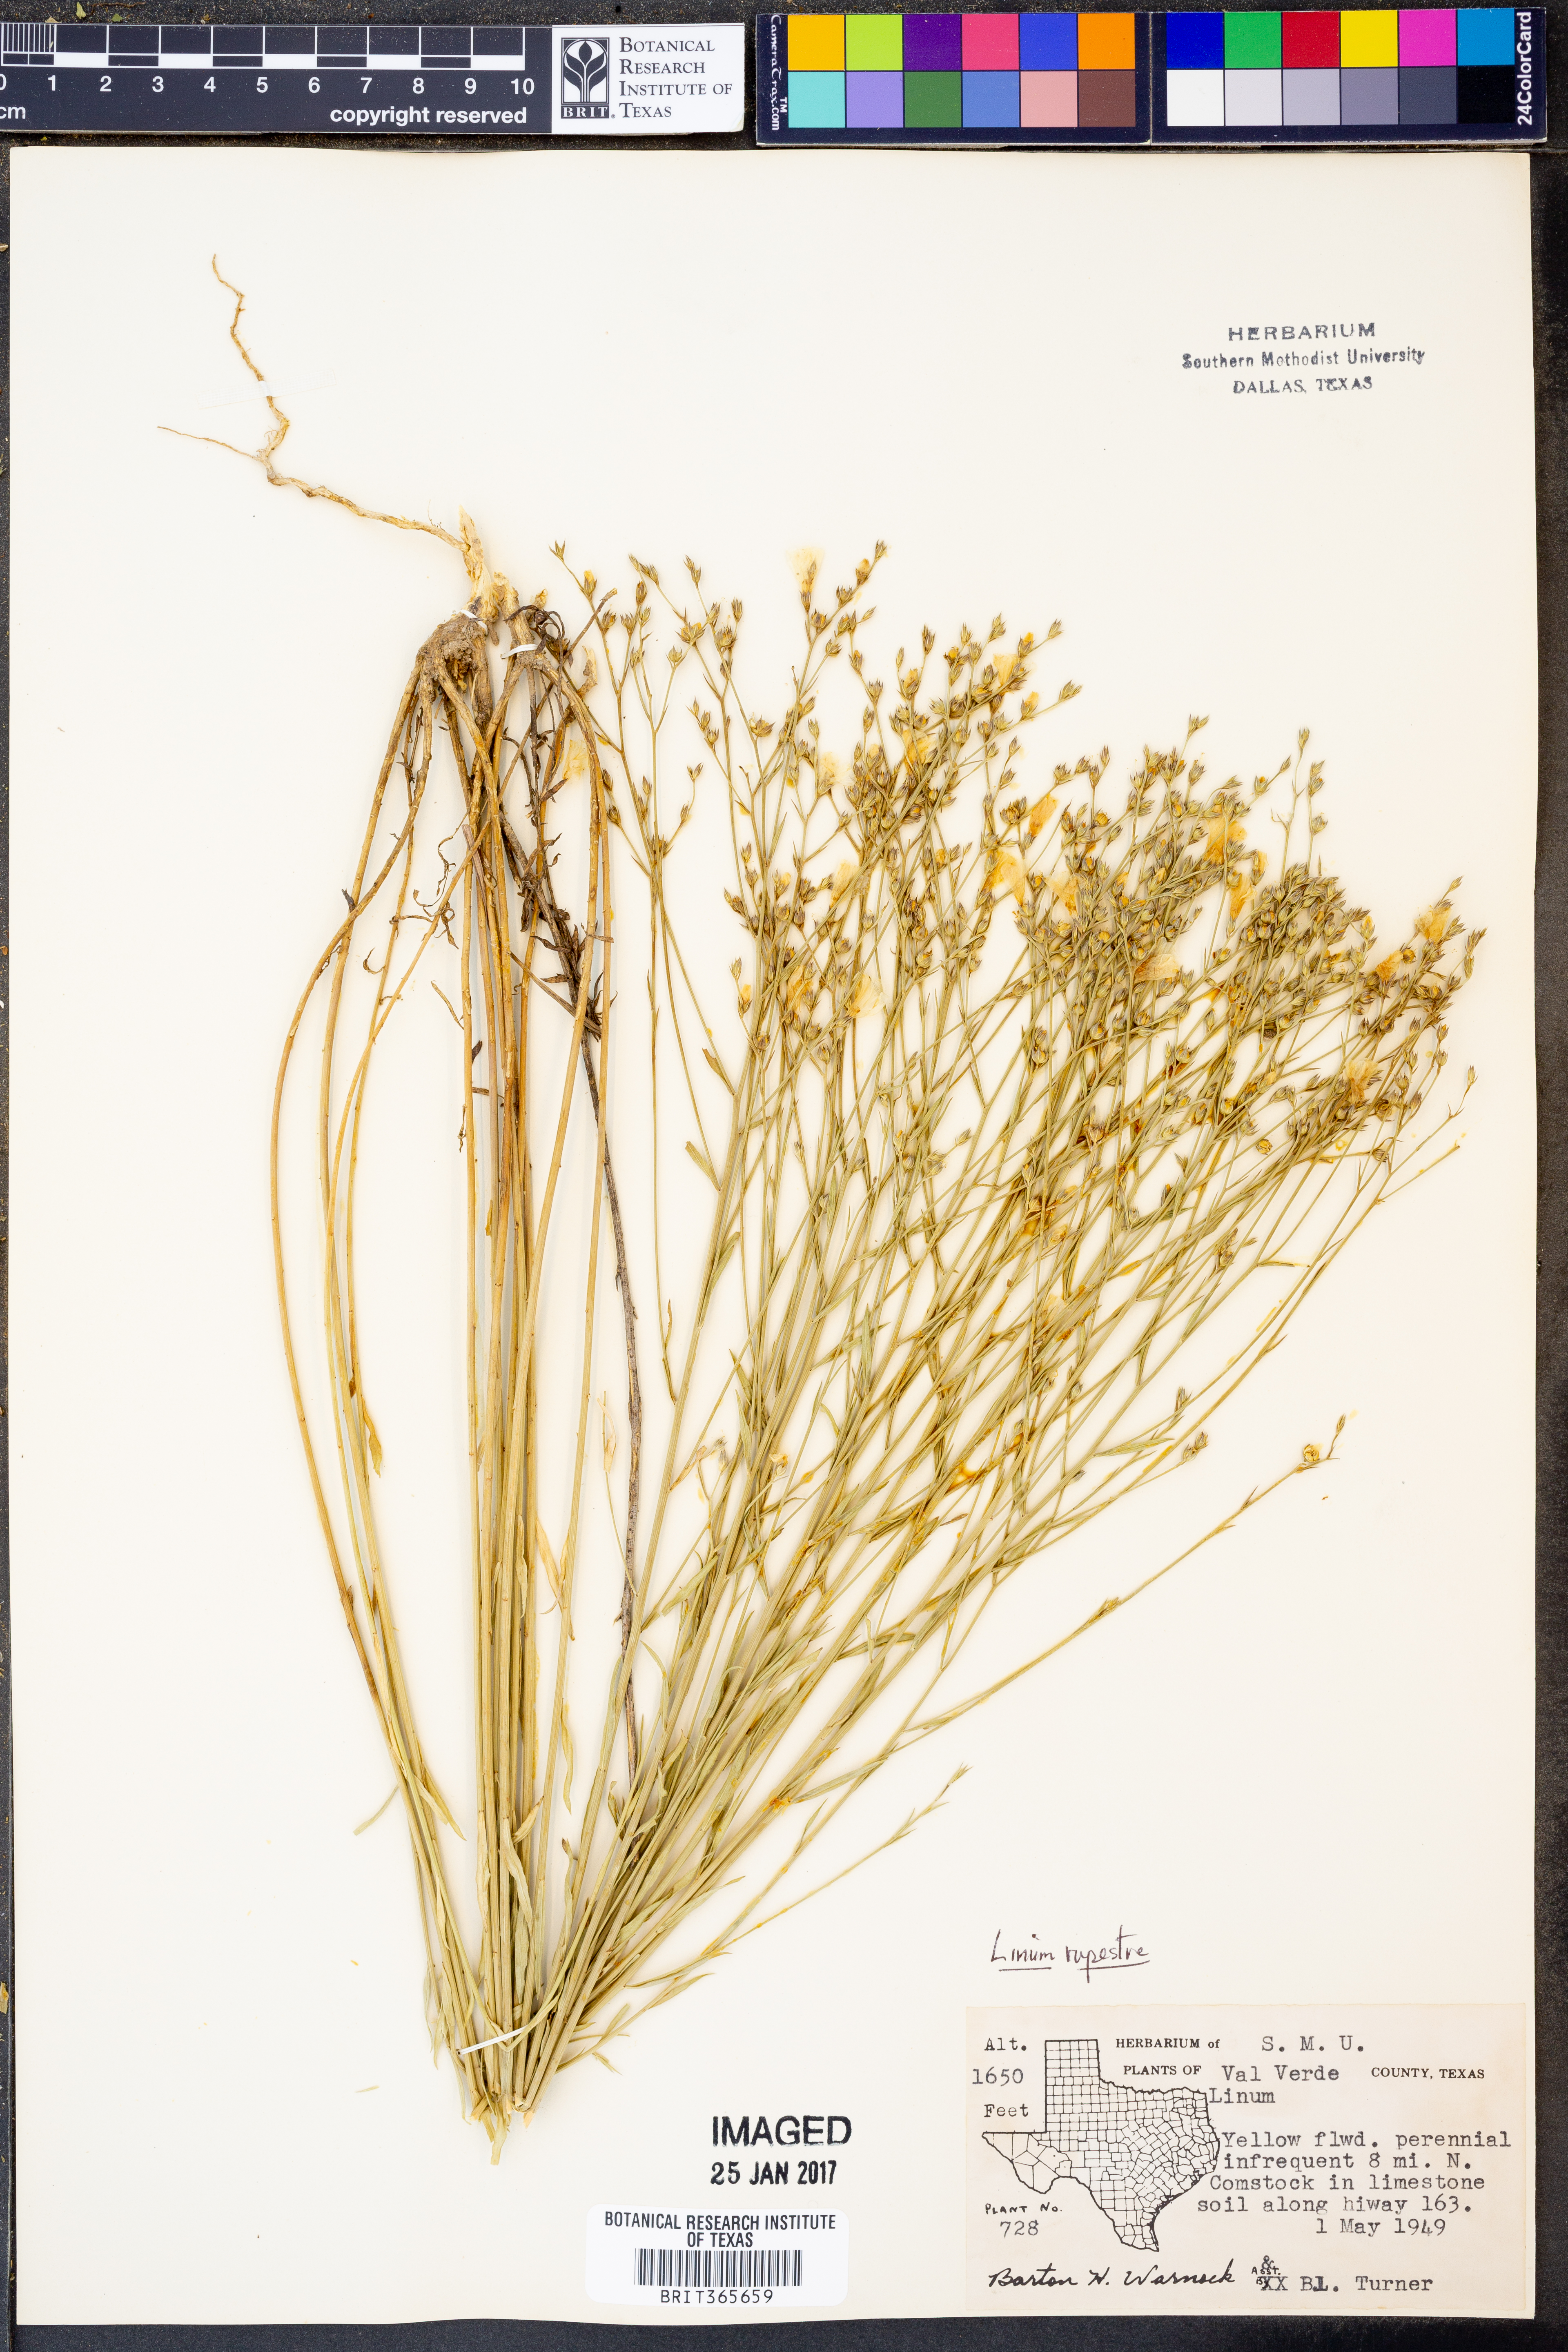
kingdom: Plantae
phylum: Tracheophyta
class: Magnoliopsida
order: Malpighiales
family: Linaceae
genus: Linum
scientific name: Linum rupestre
